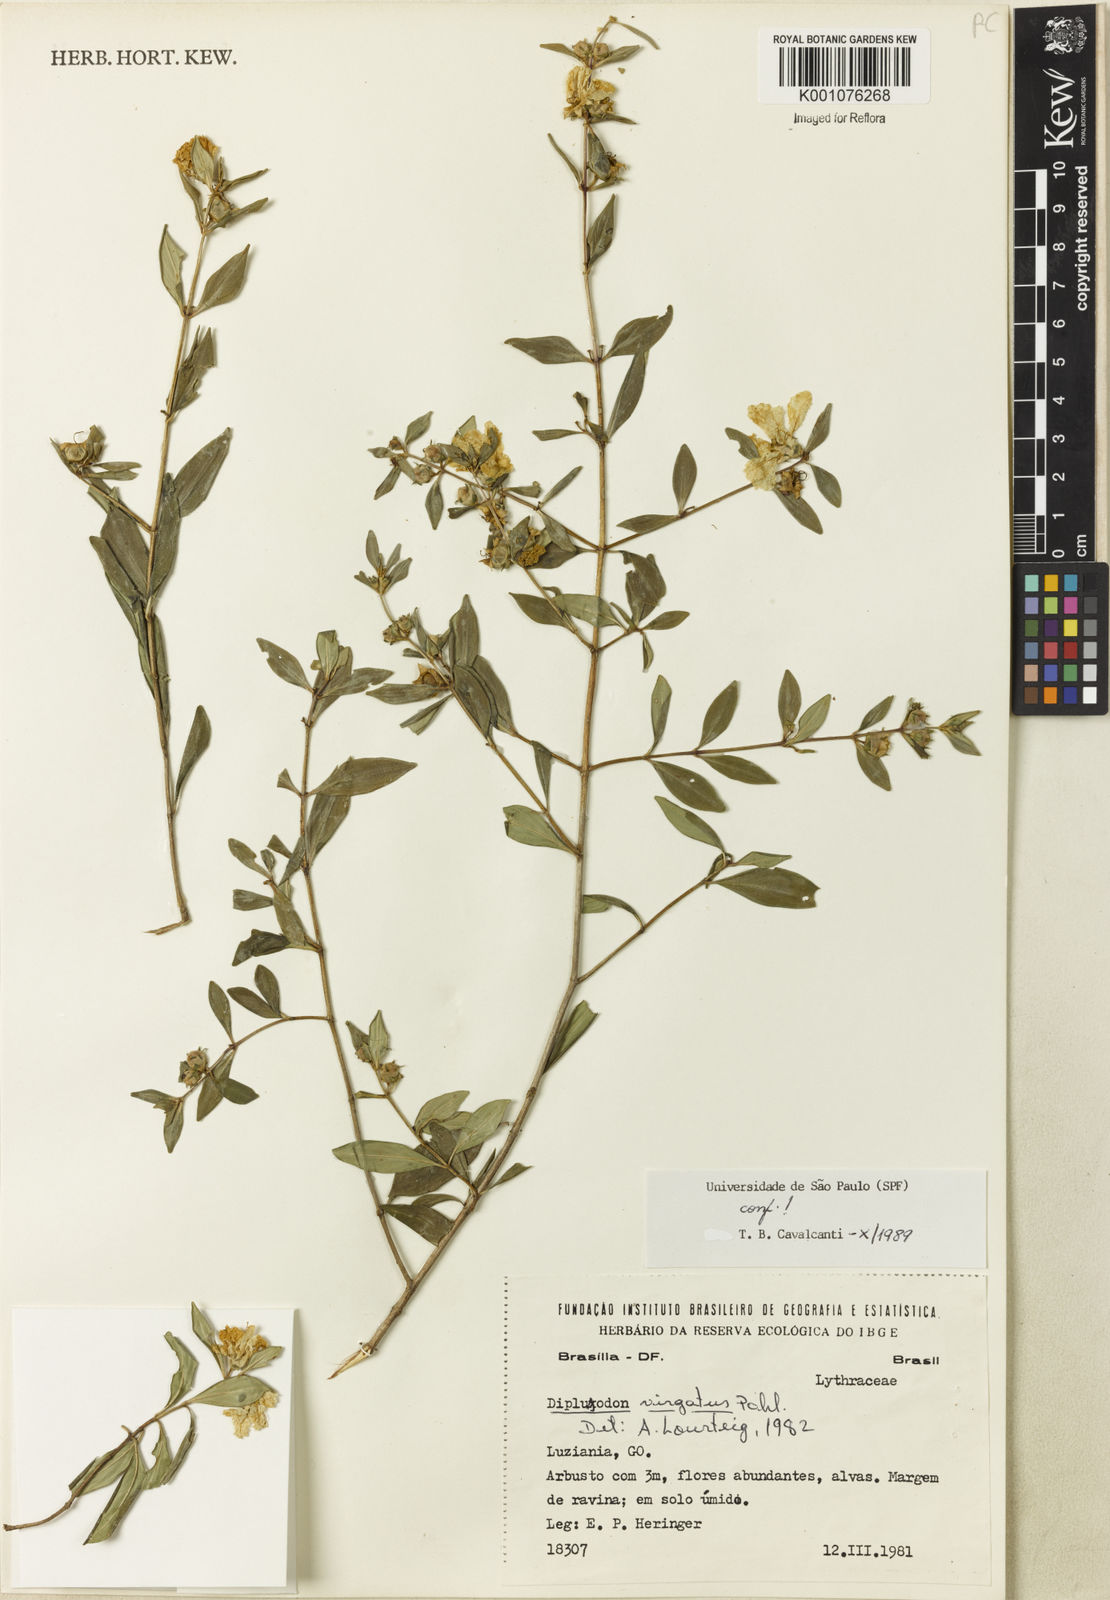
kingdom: Plantae
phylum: Tracheophyta
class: Magnoliopsida
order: Myrtales
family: Lythraceae
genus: Diplusodon
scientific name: Diplusodon virgatus
